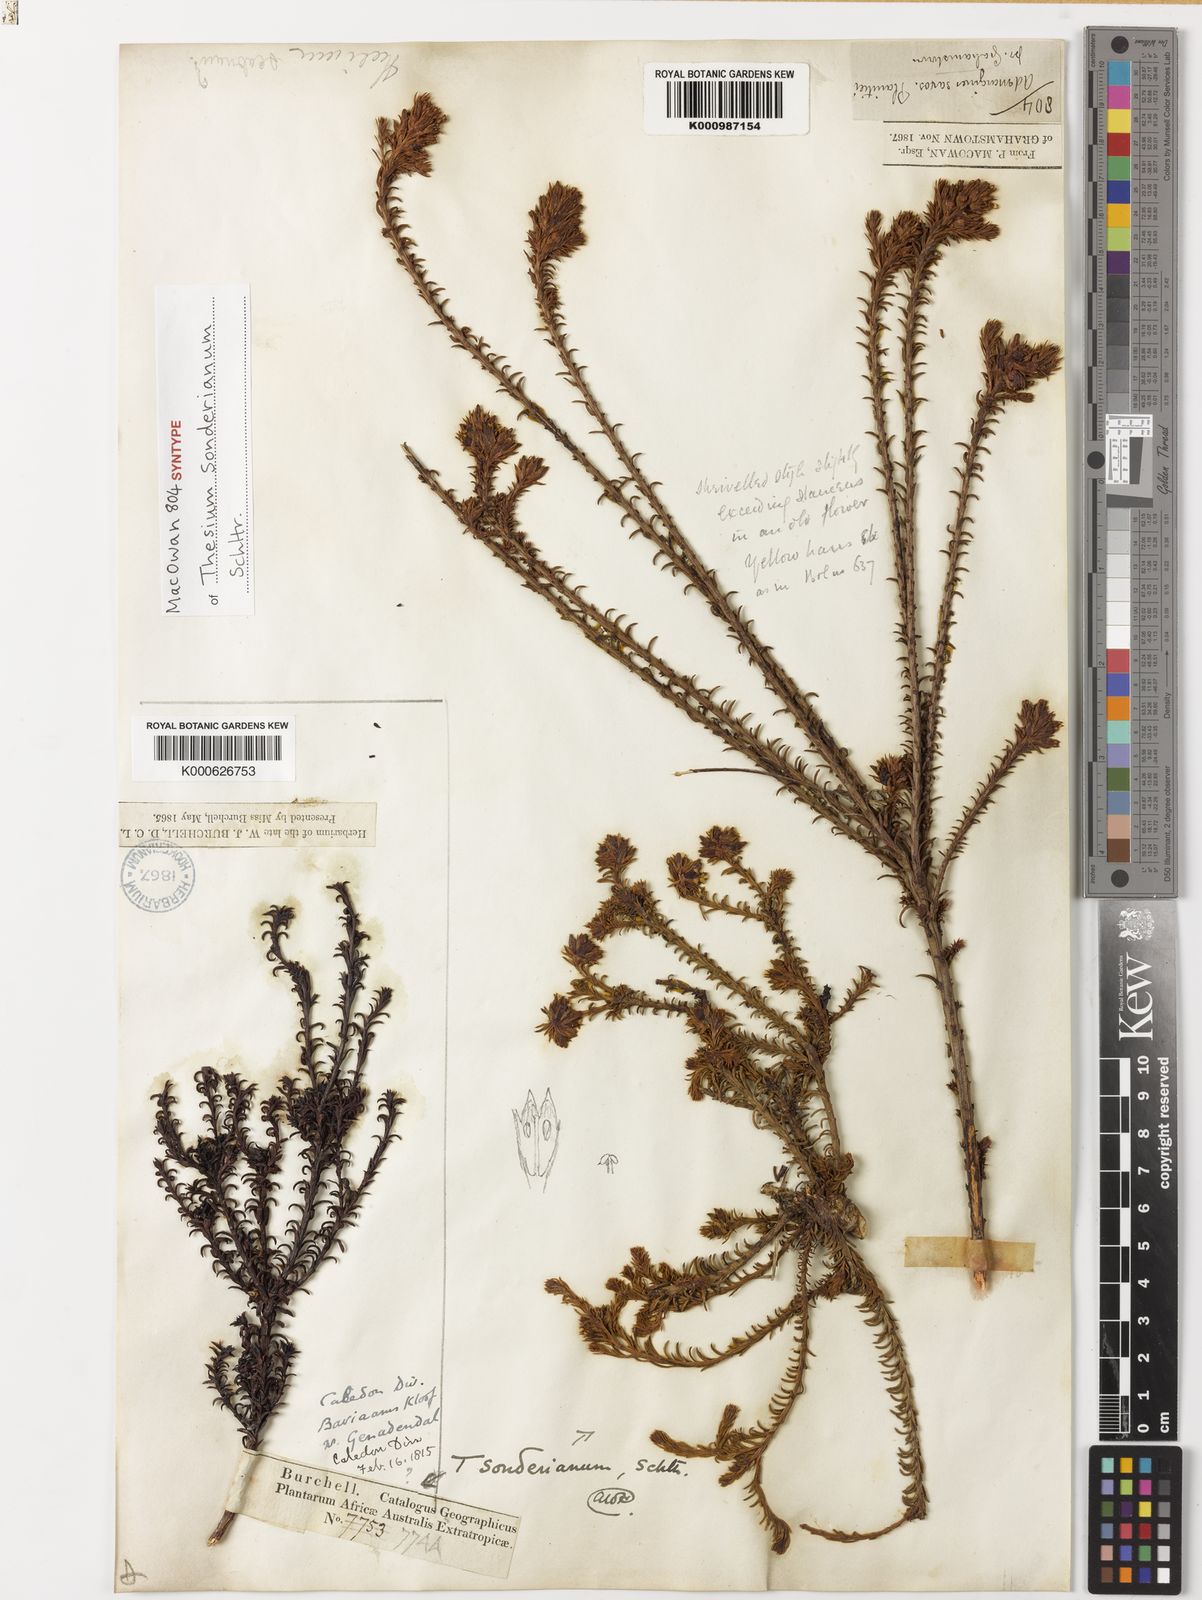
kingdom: Plantae
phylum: Tracheophyta
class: Magnoliopsida
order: Santalales
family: Thesiaceae
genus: Thesium
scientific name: Thesium sonderianum
